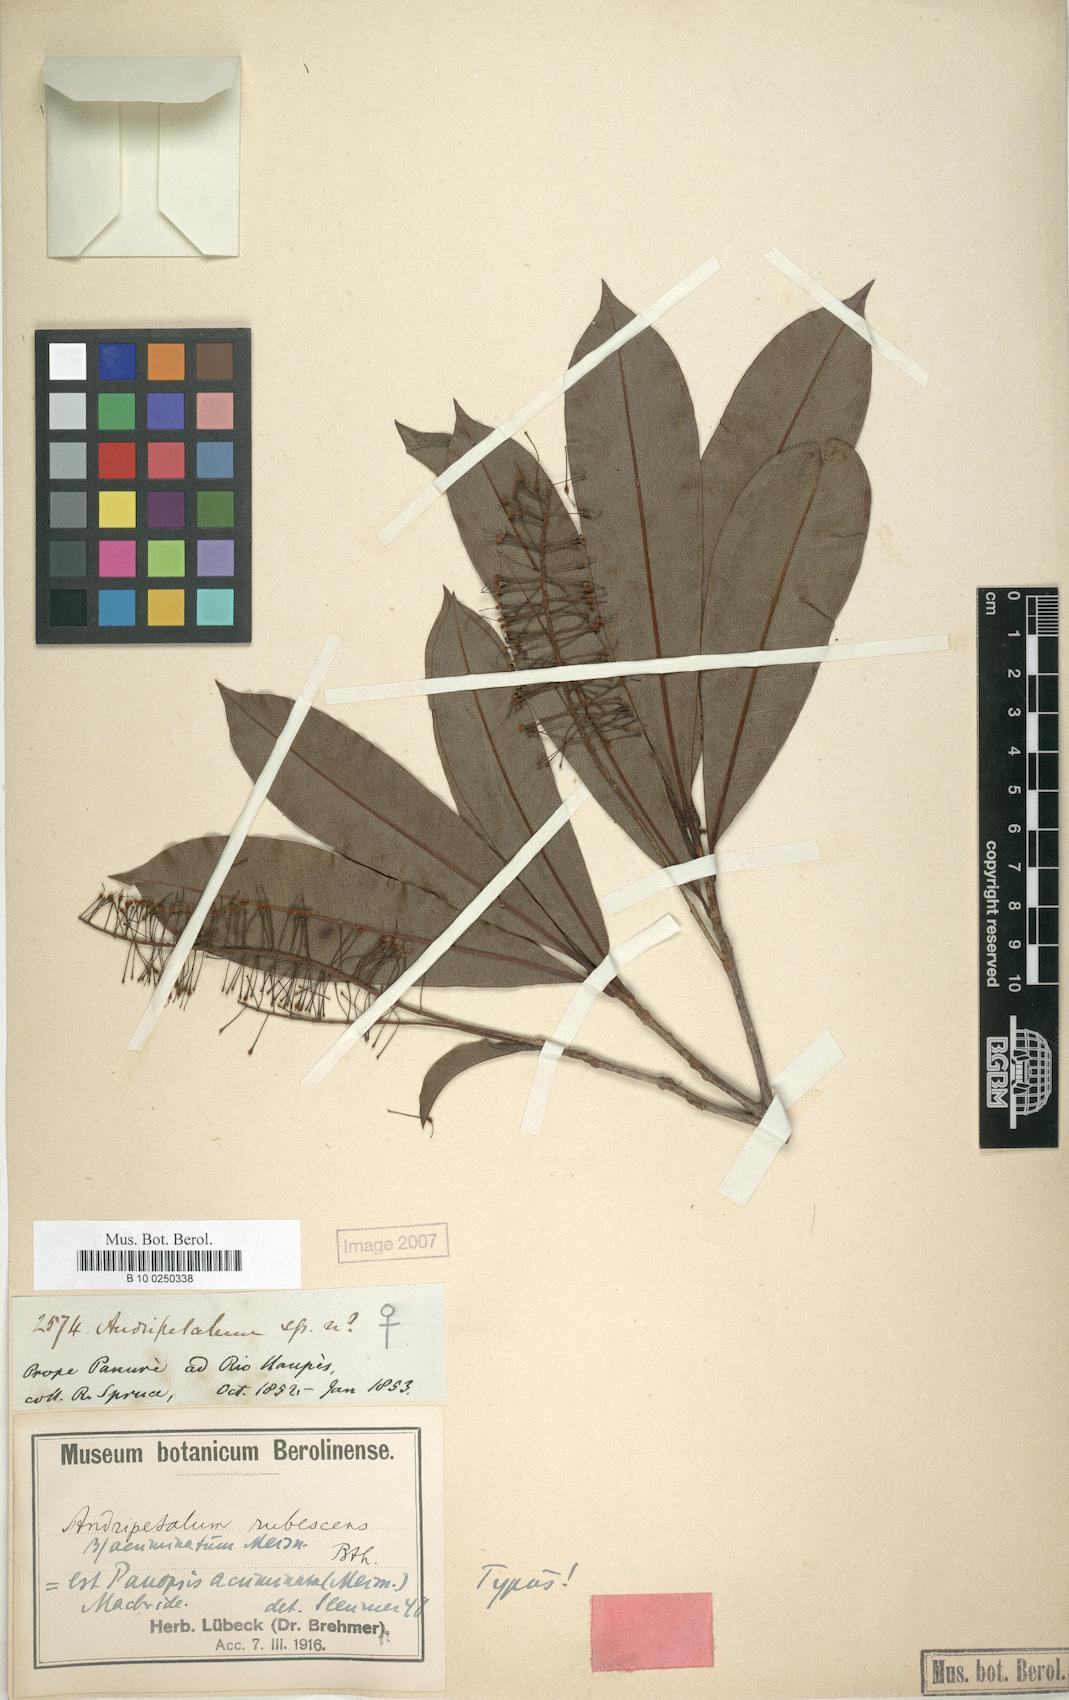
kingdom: Plantae
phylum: Tracheophyta
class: Magnoliopsida
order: Proteales
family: Proteaceae
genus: Panopsis
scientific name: Panopsis rubescens
